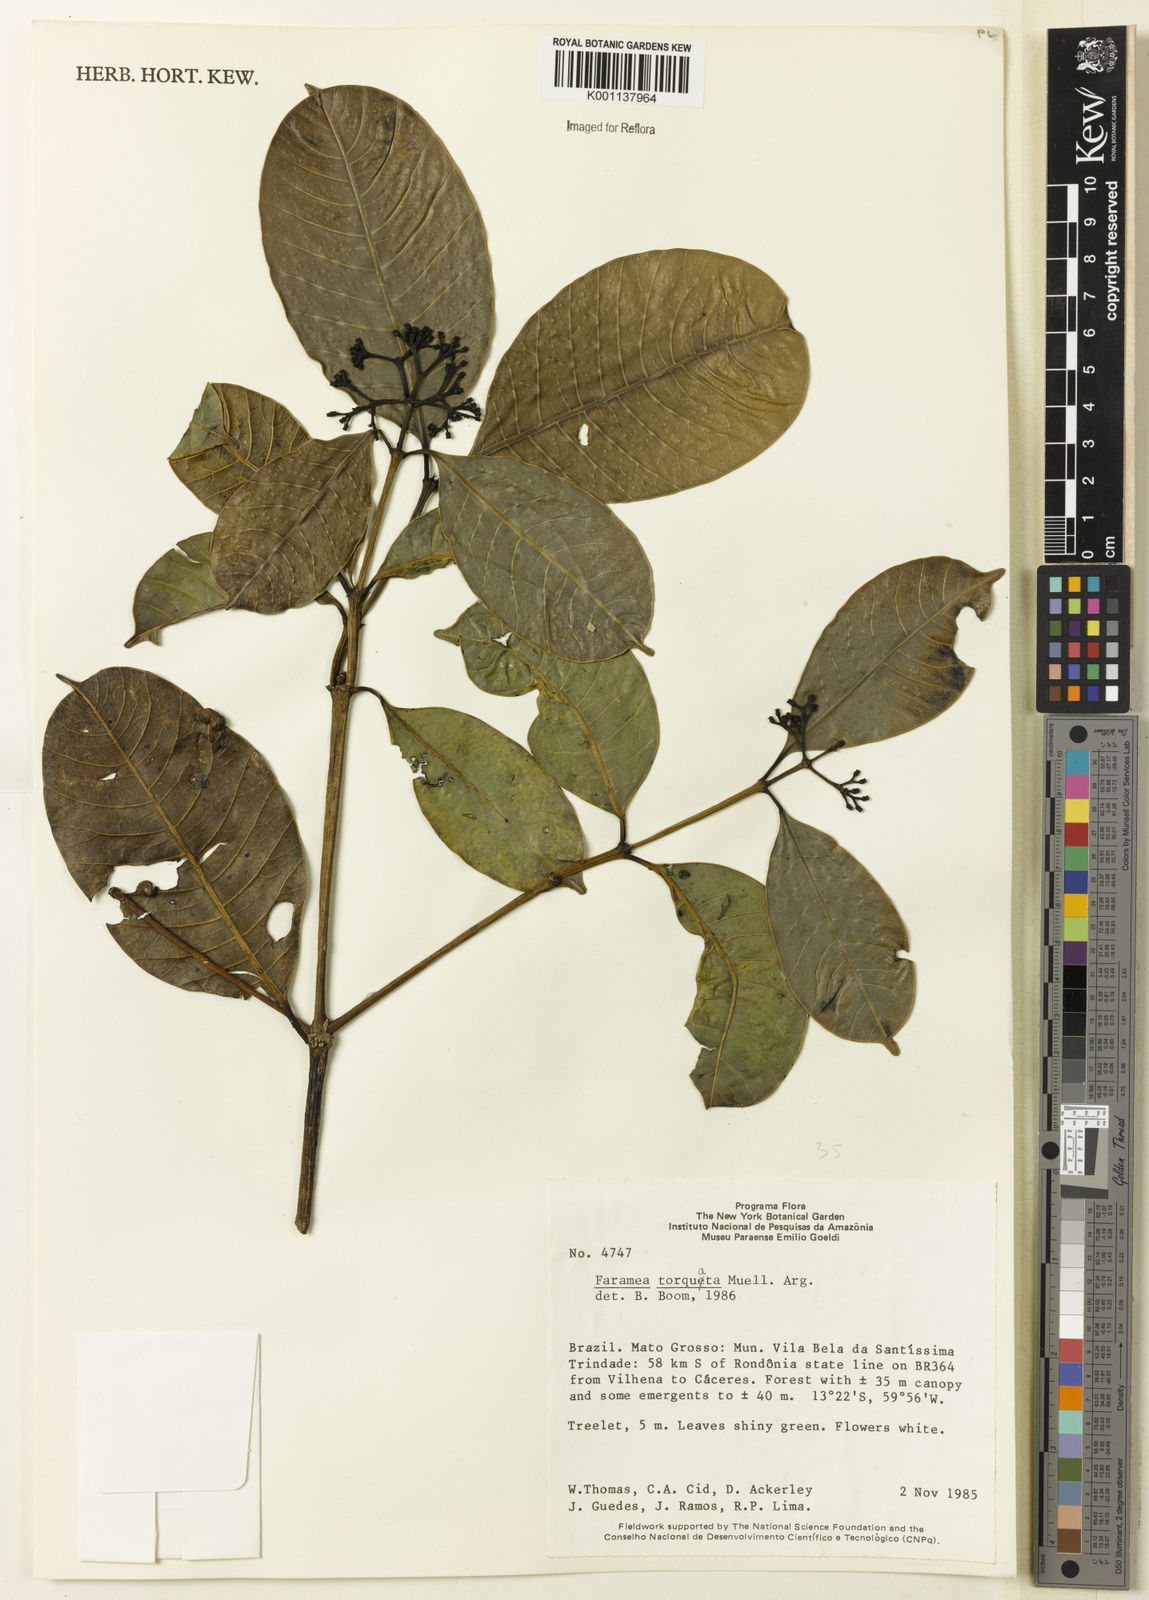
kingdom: Plantae
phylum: Tracheophyta
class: Magnoliopsida
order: Gentianales
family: Rubiaceae
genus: Faramea
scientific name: Faramea
